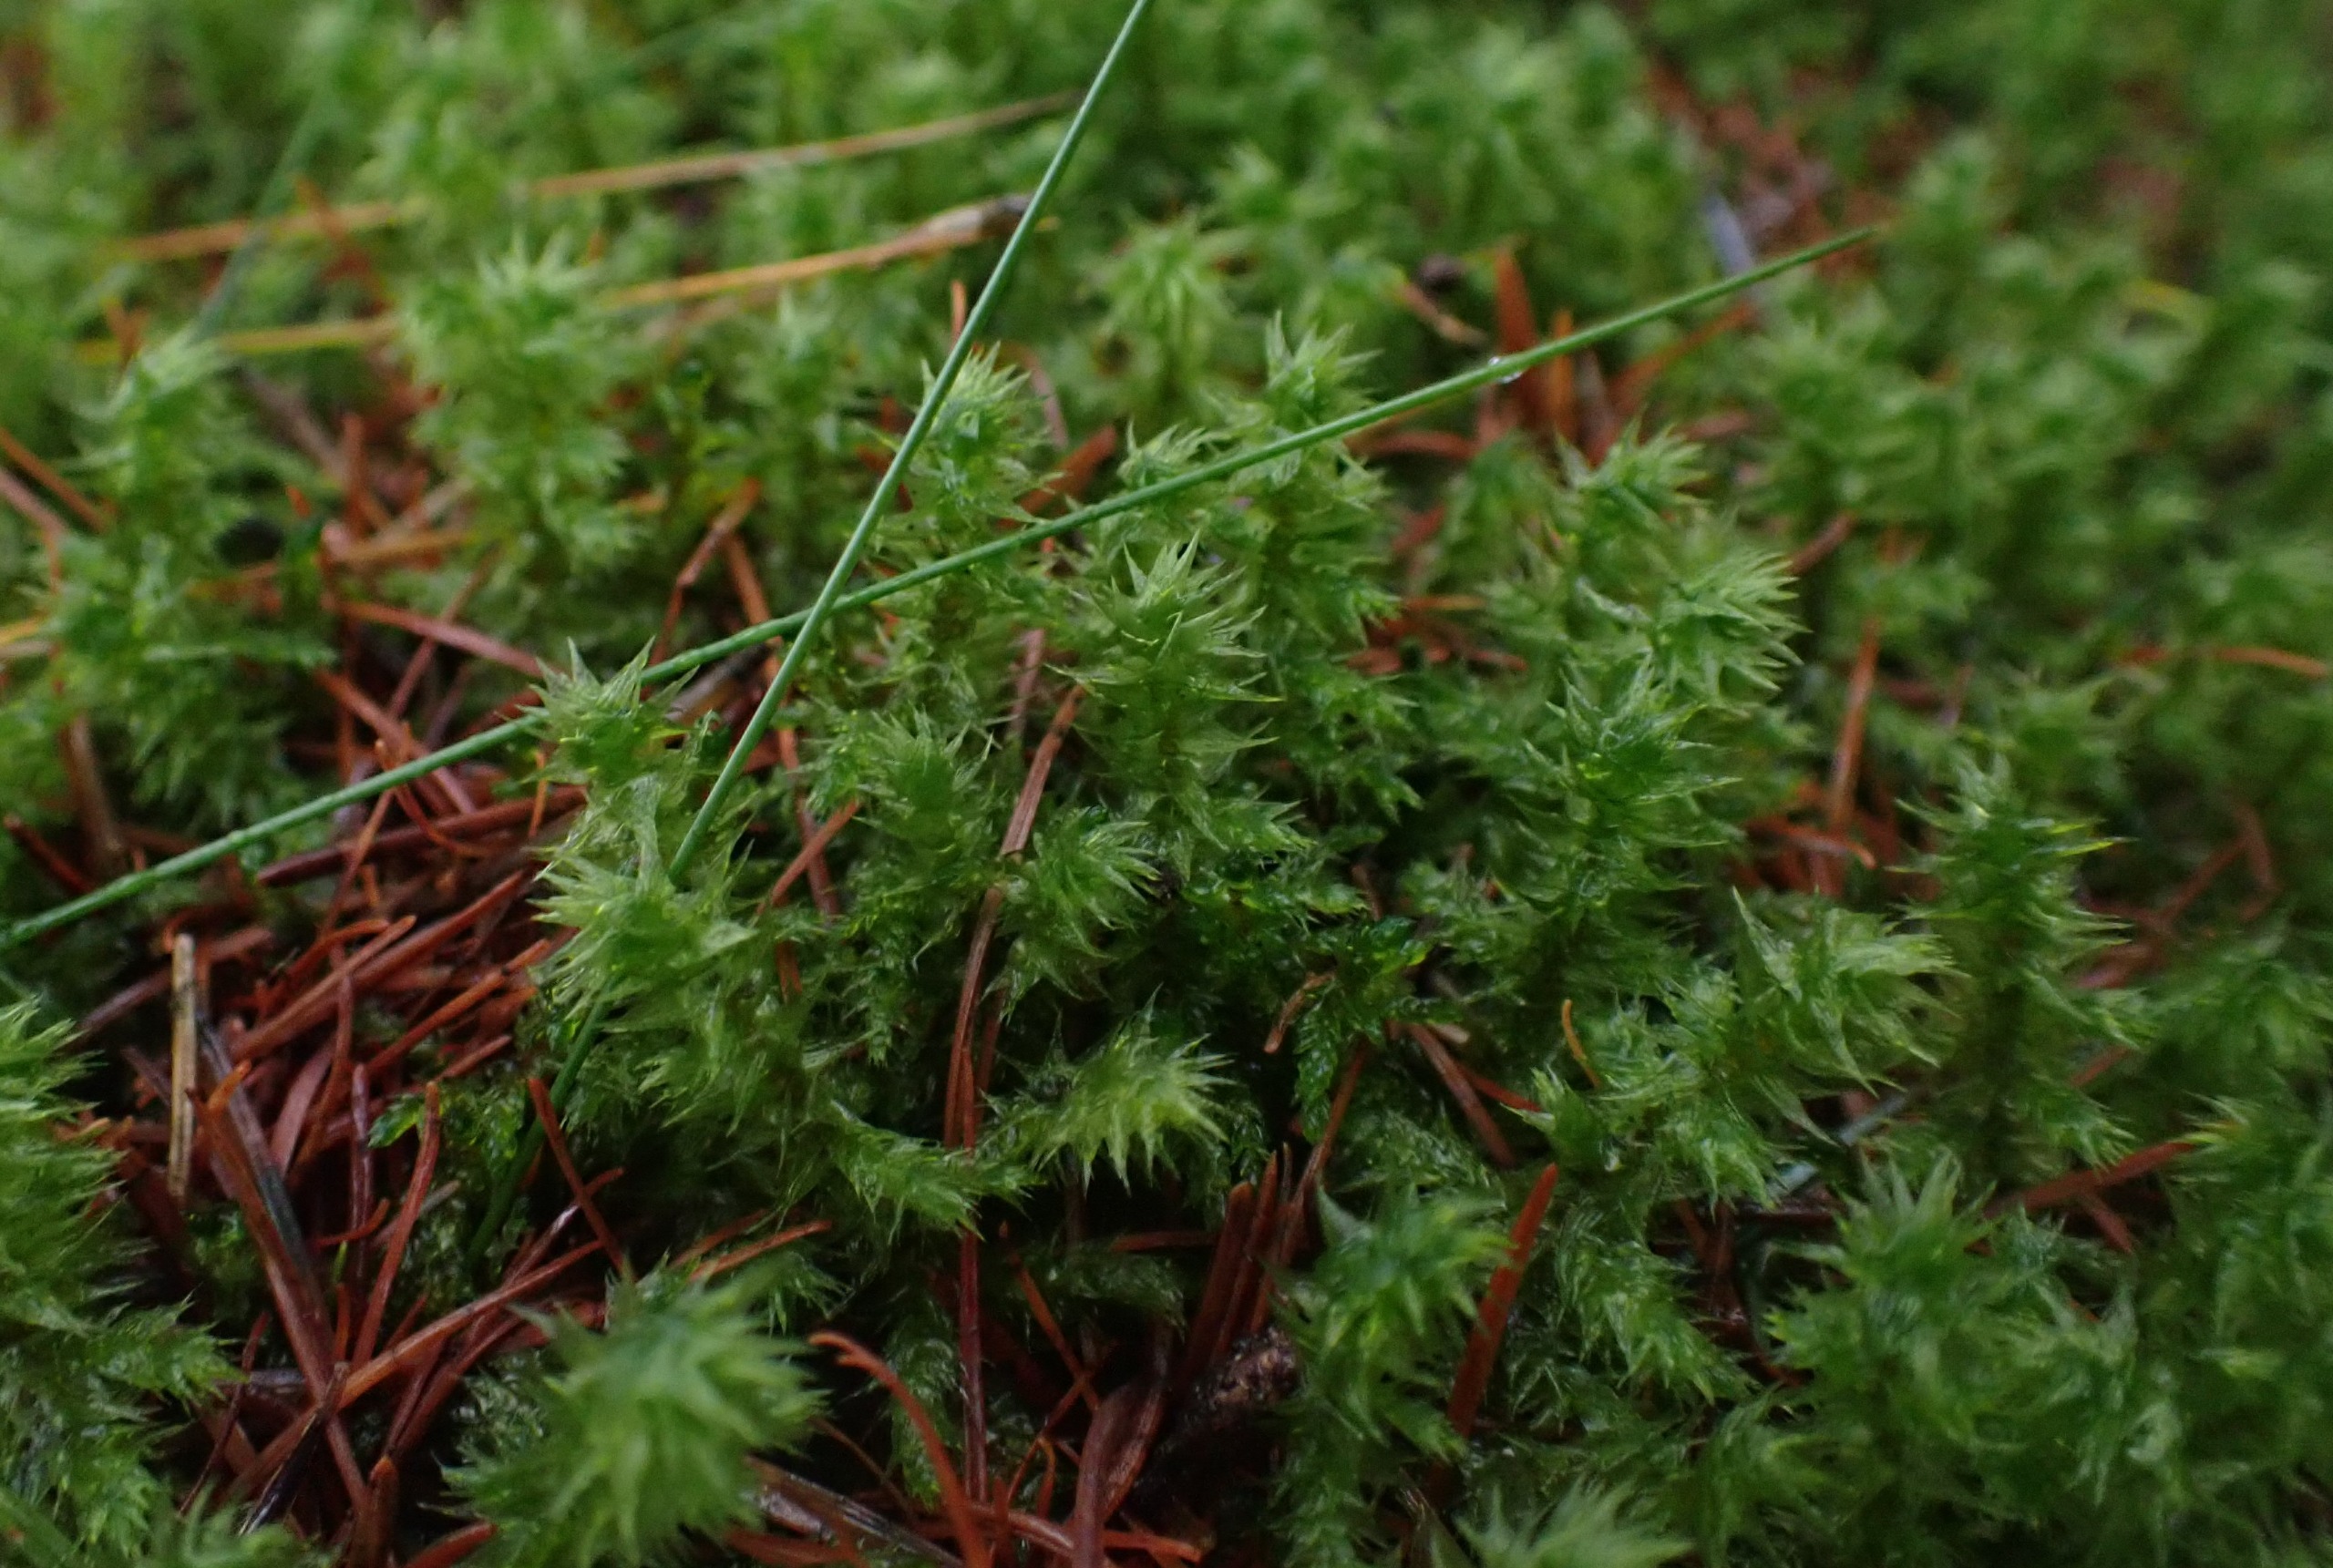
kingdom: Plantae
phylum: Bryophyta
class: Bryopsida
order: Hypnales
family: Hylocomiaceae
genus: Hylocomiadelphus
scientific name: Hylocomiadelphus triquetrus
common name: Stor kransemos
